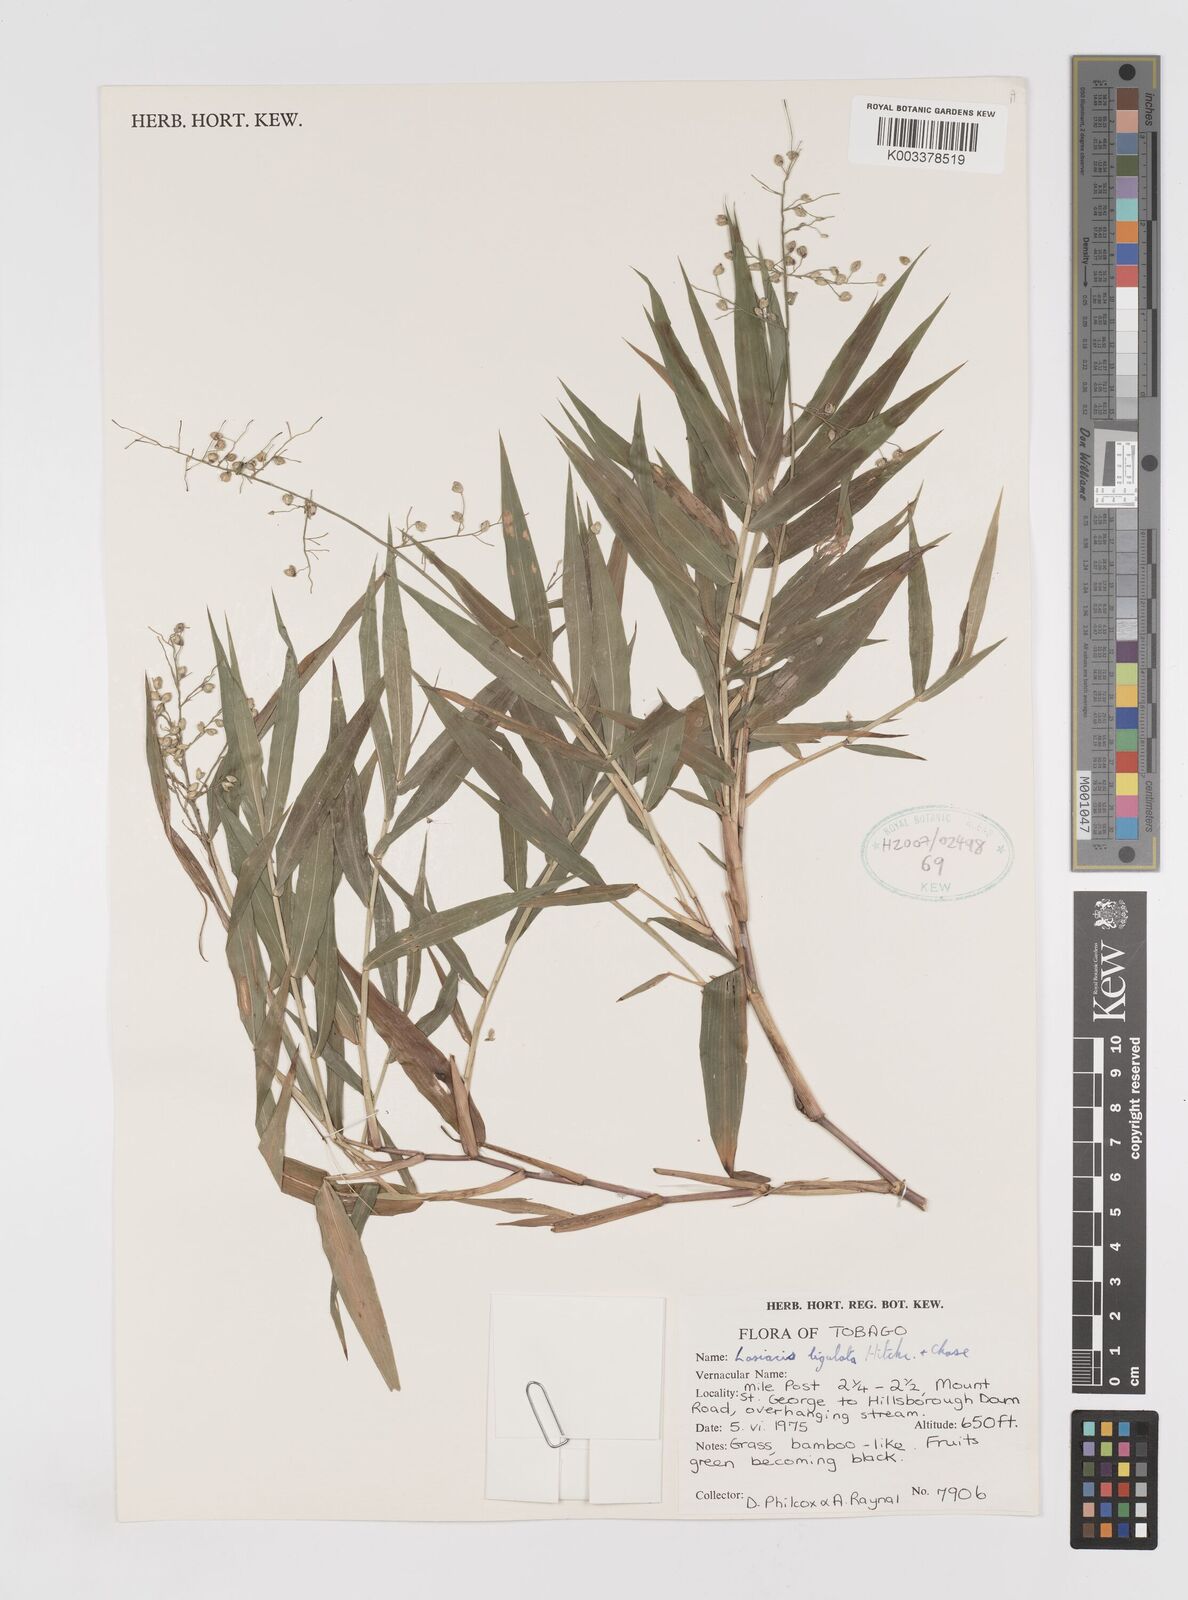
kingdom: Plantae
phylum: Tracheophyta
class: Liliopsida
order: Poales
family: Poaceae
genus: Lasiacis
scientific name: Lasiacis ligulata
